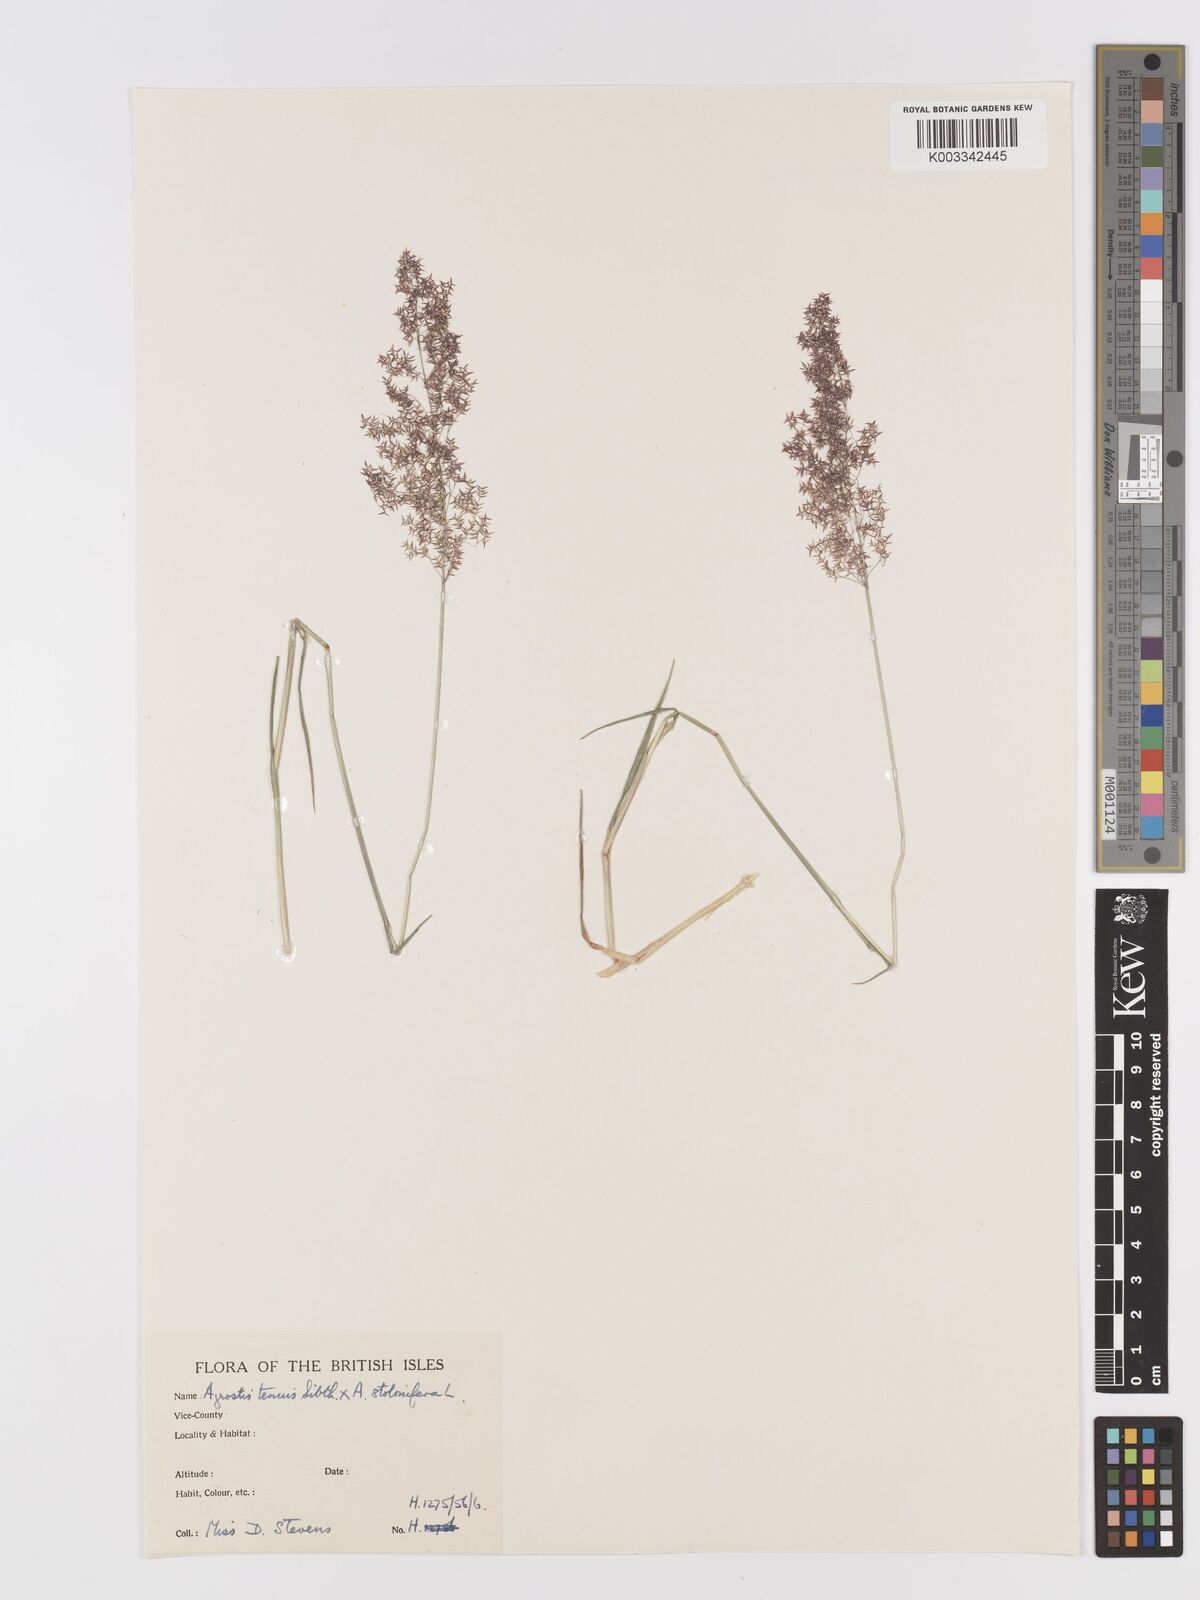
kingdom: Plantae
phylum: Tracheophyta
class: Liliopsida
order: Poales
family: Poaceae
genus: Agrostis
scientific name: Agrostis capillaris
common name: Colonial bentgrass
